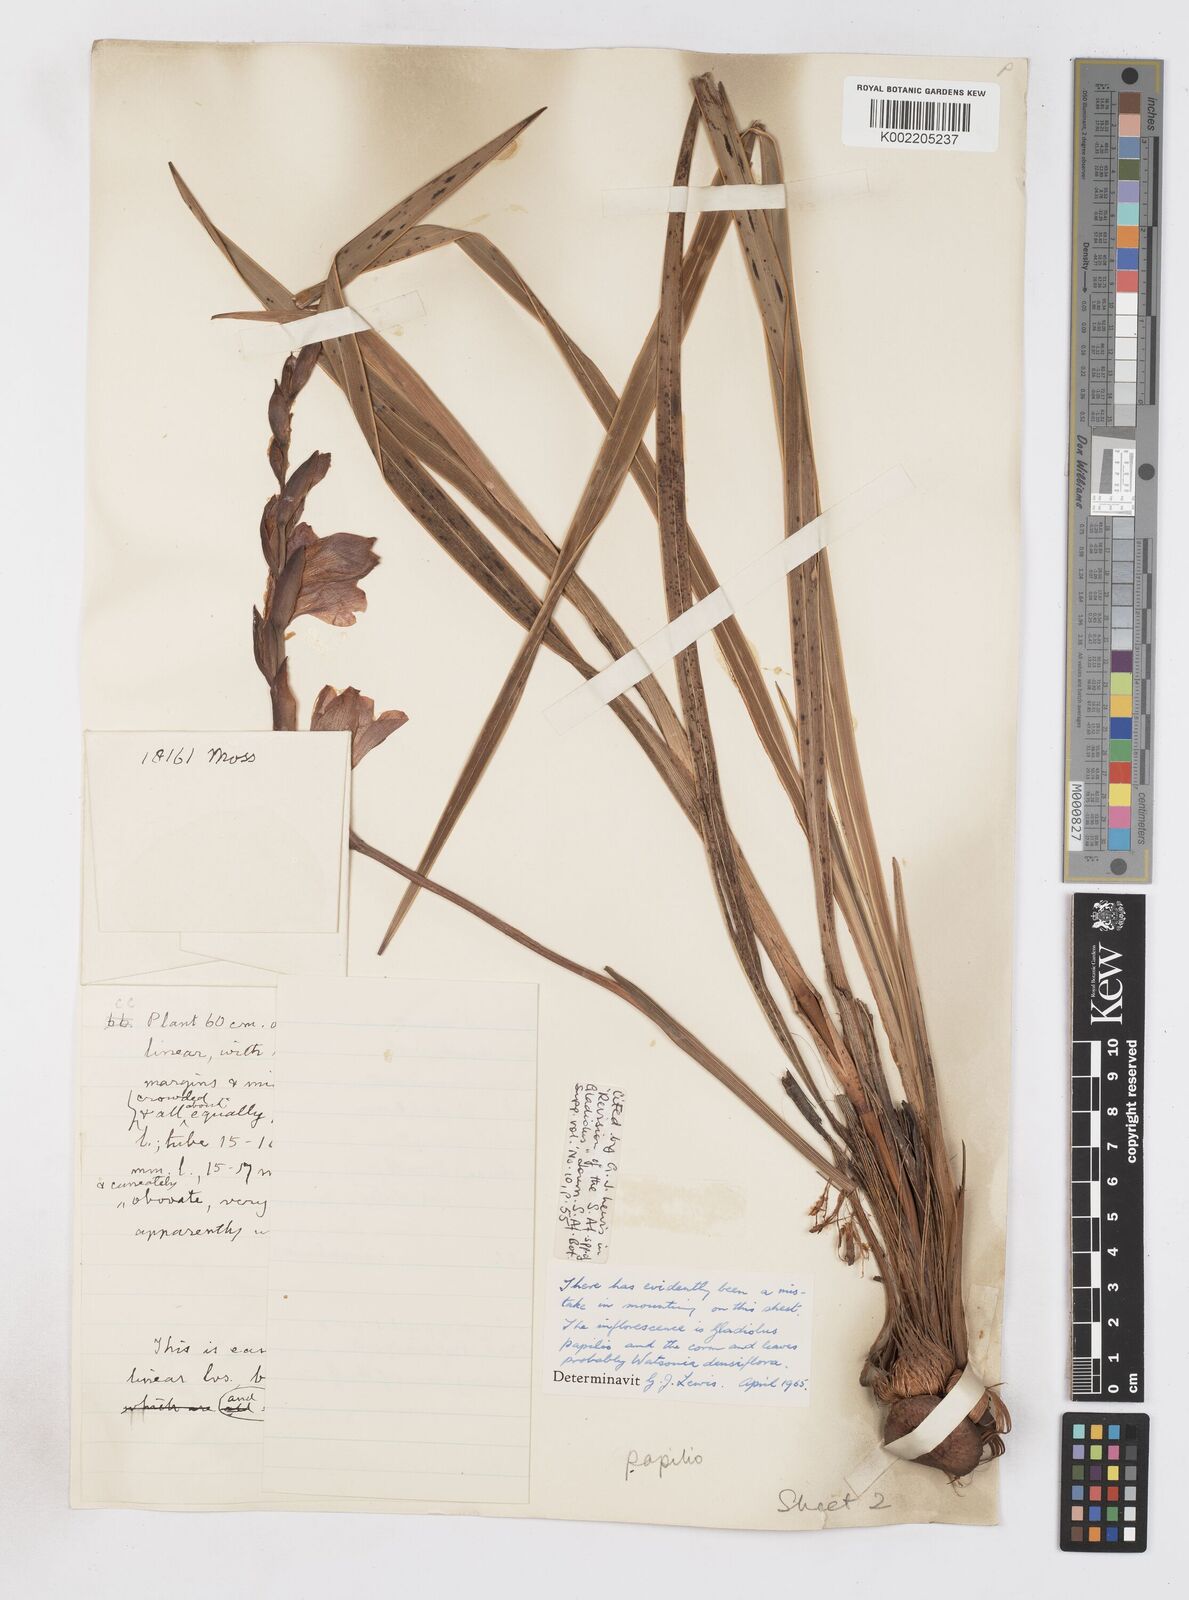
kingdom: Plantae
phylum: Tracheophyta
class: Liliopsida
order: Asparagales
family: Iridaceae
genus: Gladiolus
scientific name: Gladiolus papilio
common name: Goldblotch gladiolus
